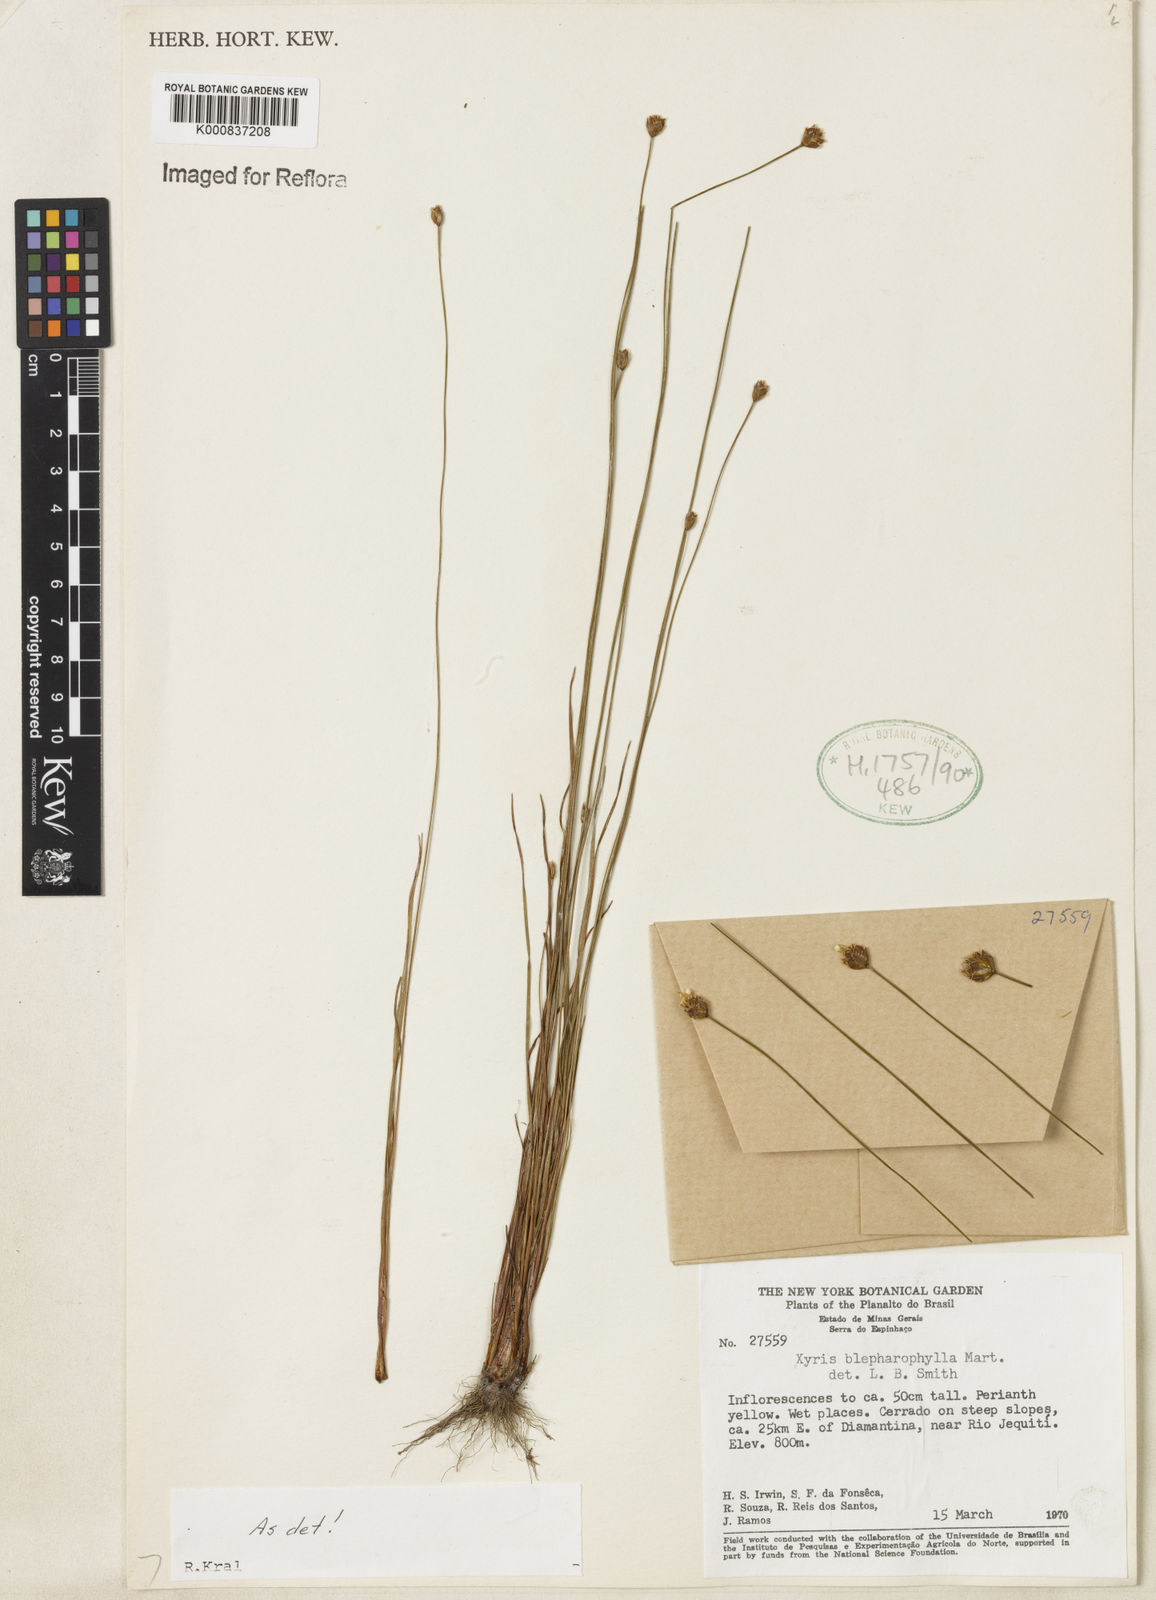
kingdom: Plantae
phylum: Tracheophyta
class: Liliopsida
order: Poales
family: Xyridaceae
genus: Xyris
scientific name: Xyris blepharophylla
